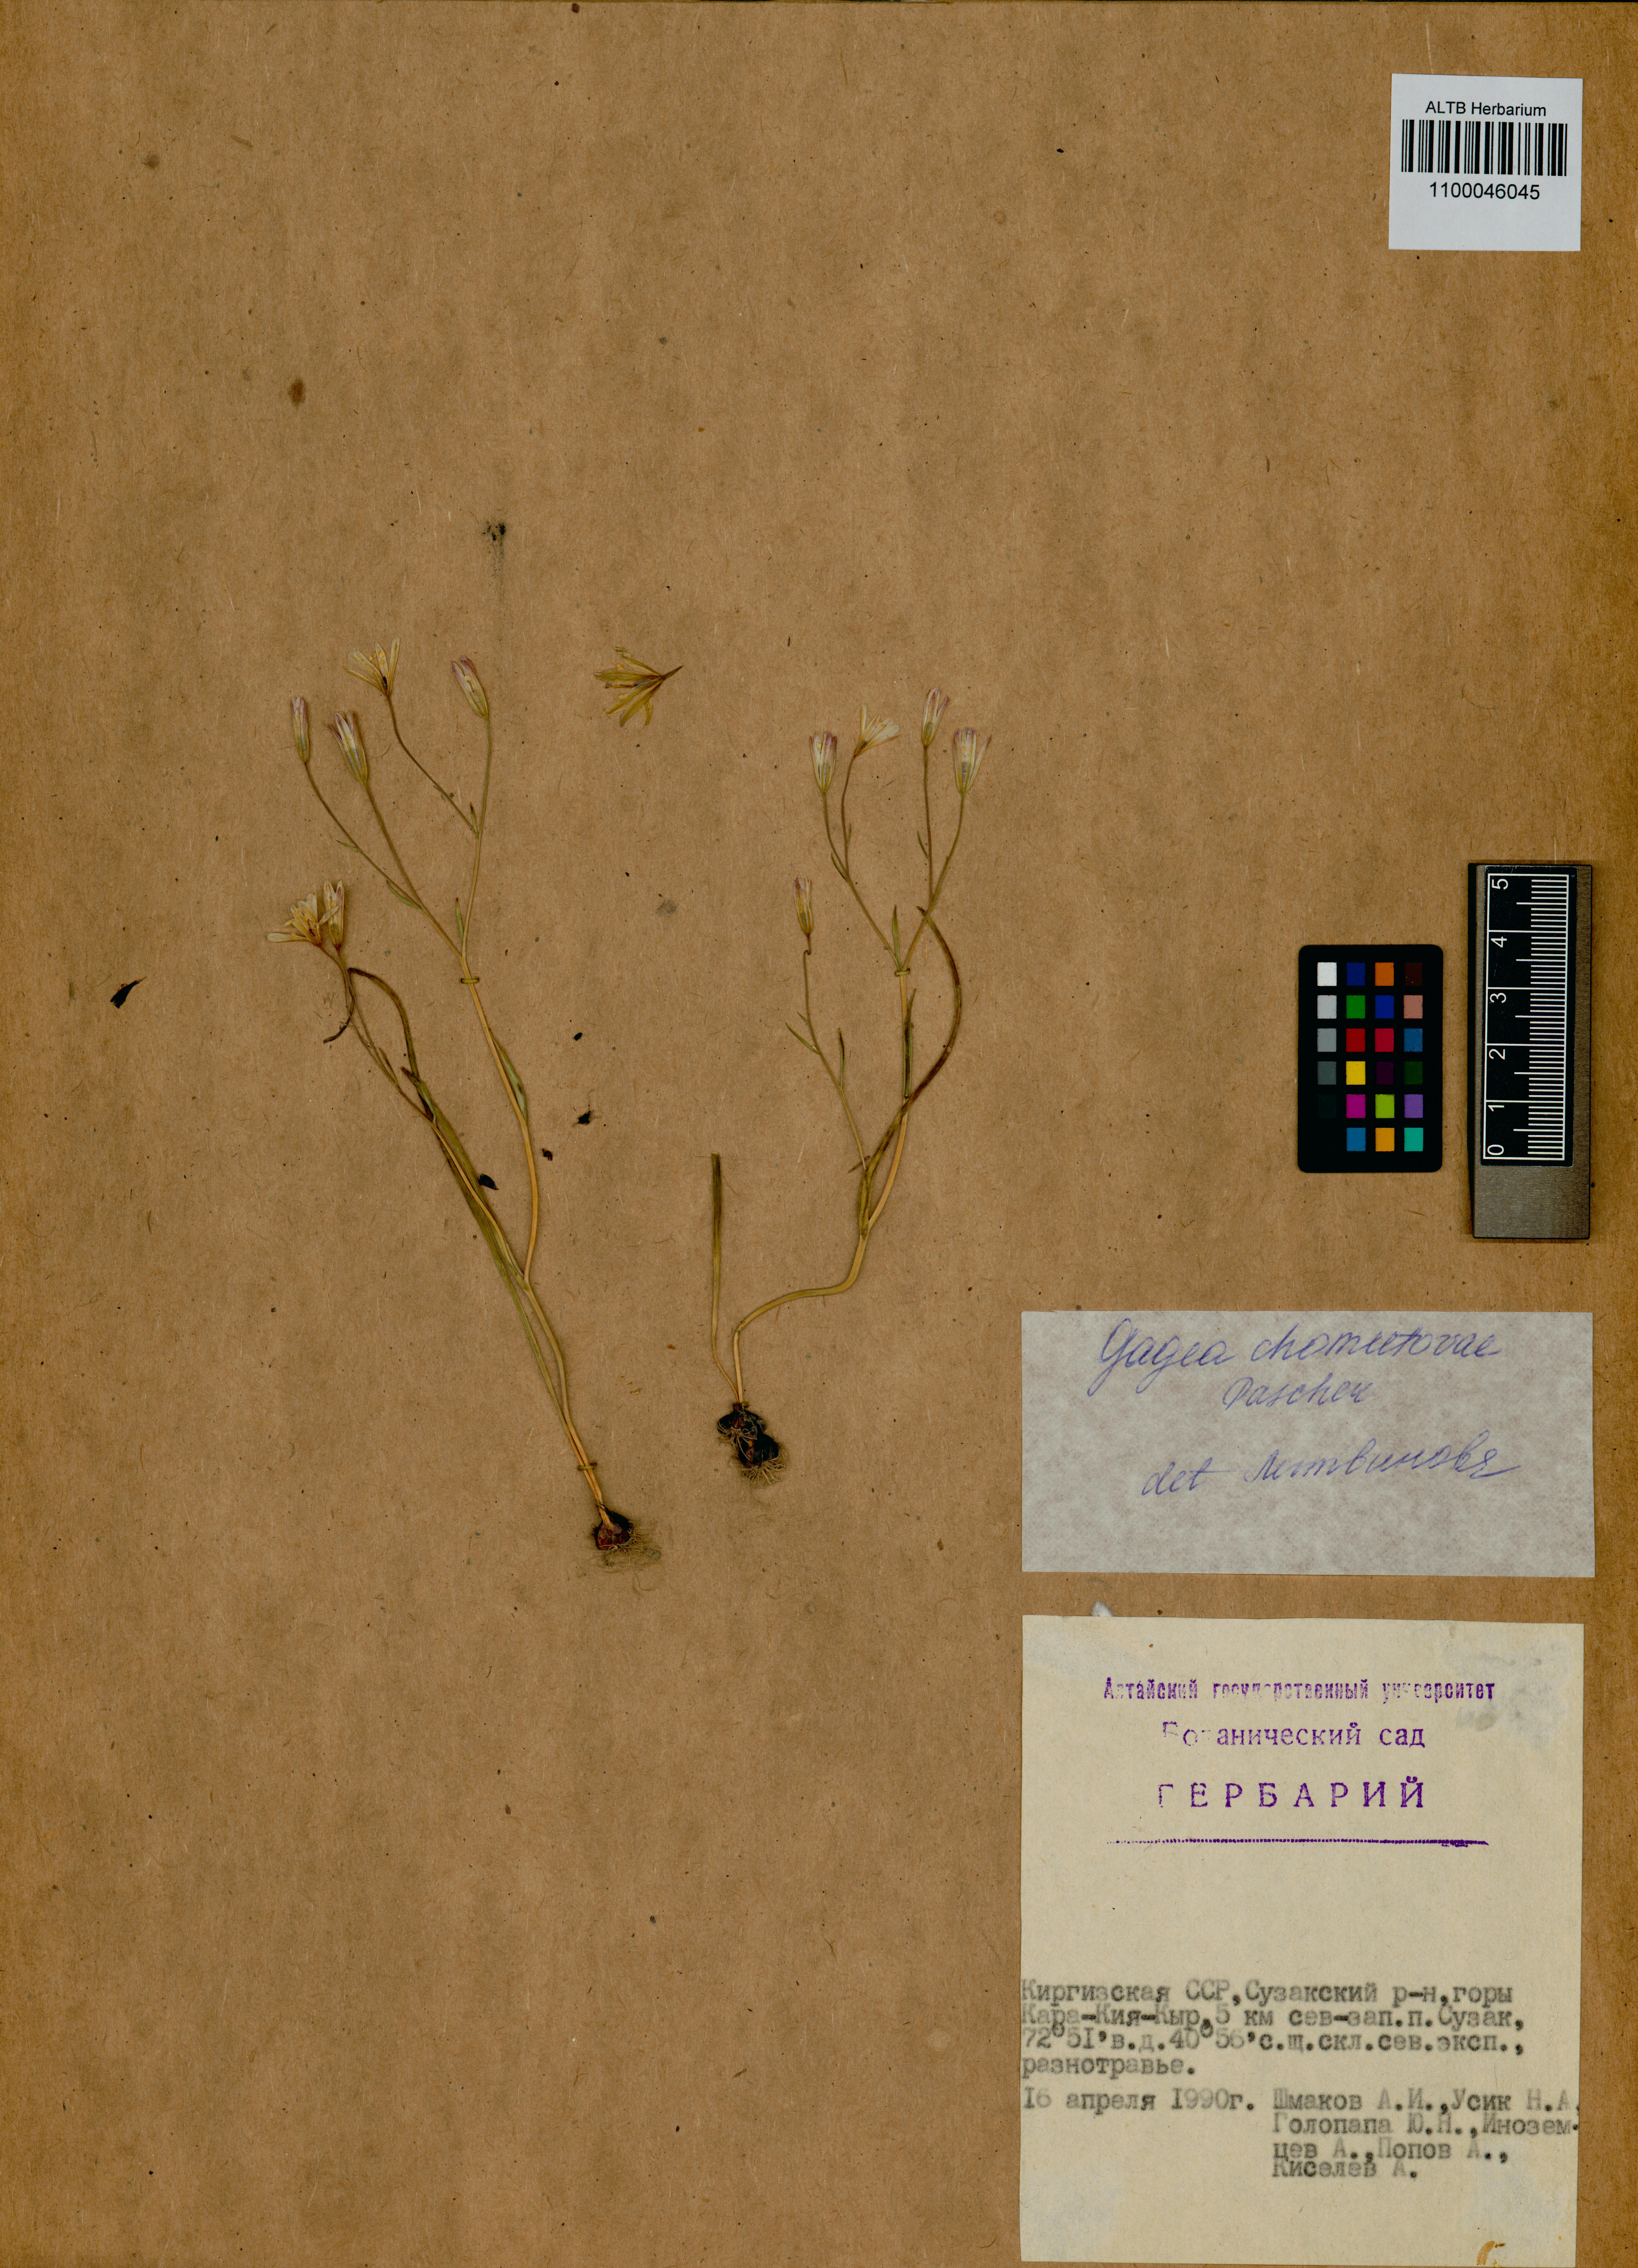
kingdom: Plantae
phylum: Tracheophyta
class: Liliopsida
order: Liliales
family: Liliaceae
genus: Gagea
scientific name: Gagea chomutowae
